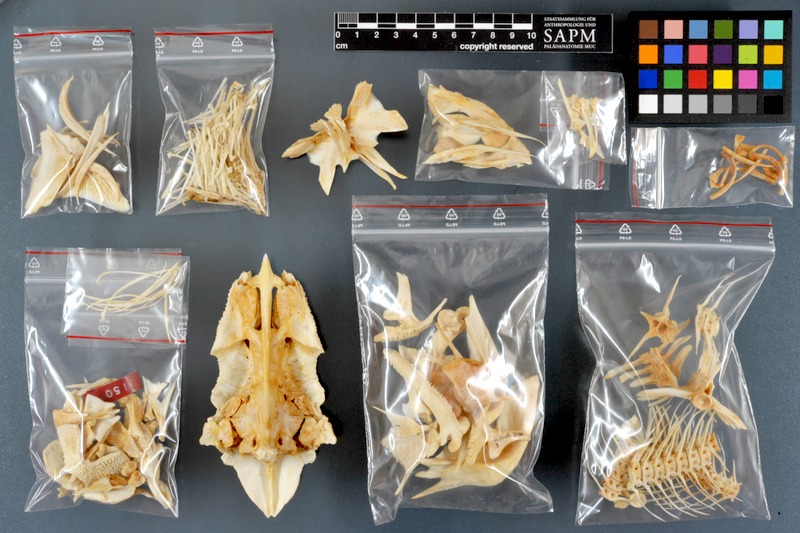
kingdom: Animalia
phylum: Chordata
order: Siluriformes
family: Claroteidae
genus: Auchenoglanis
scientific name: Auchenoglanis occidentalis
